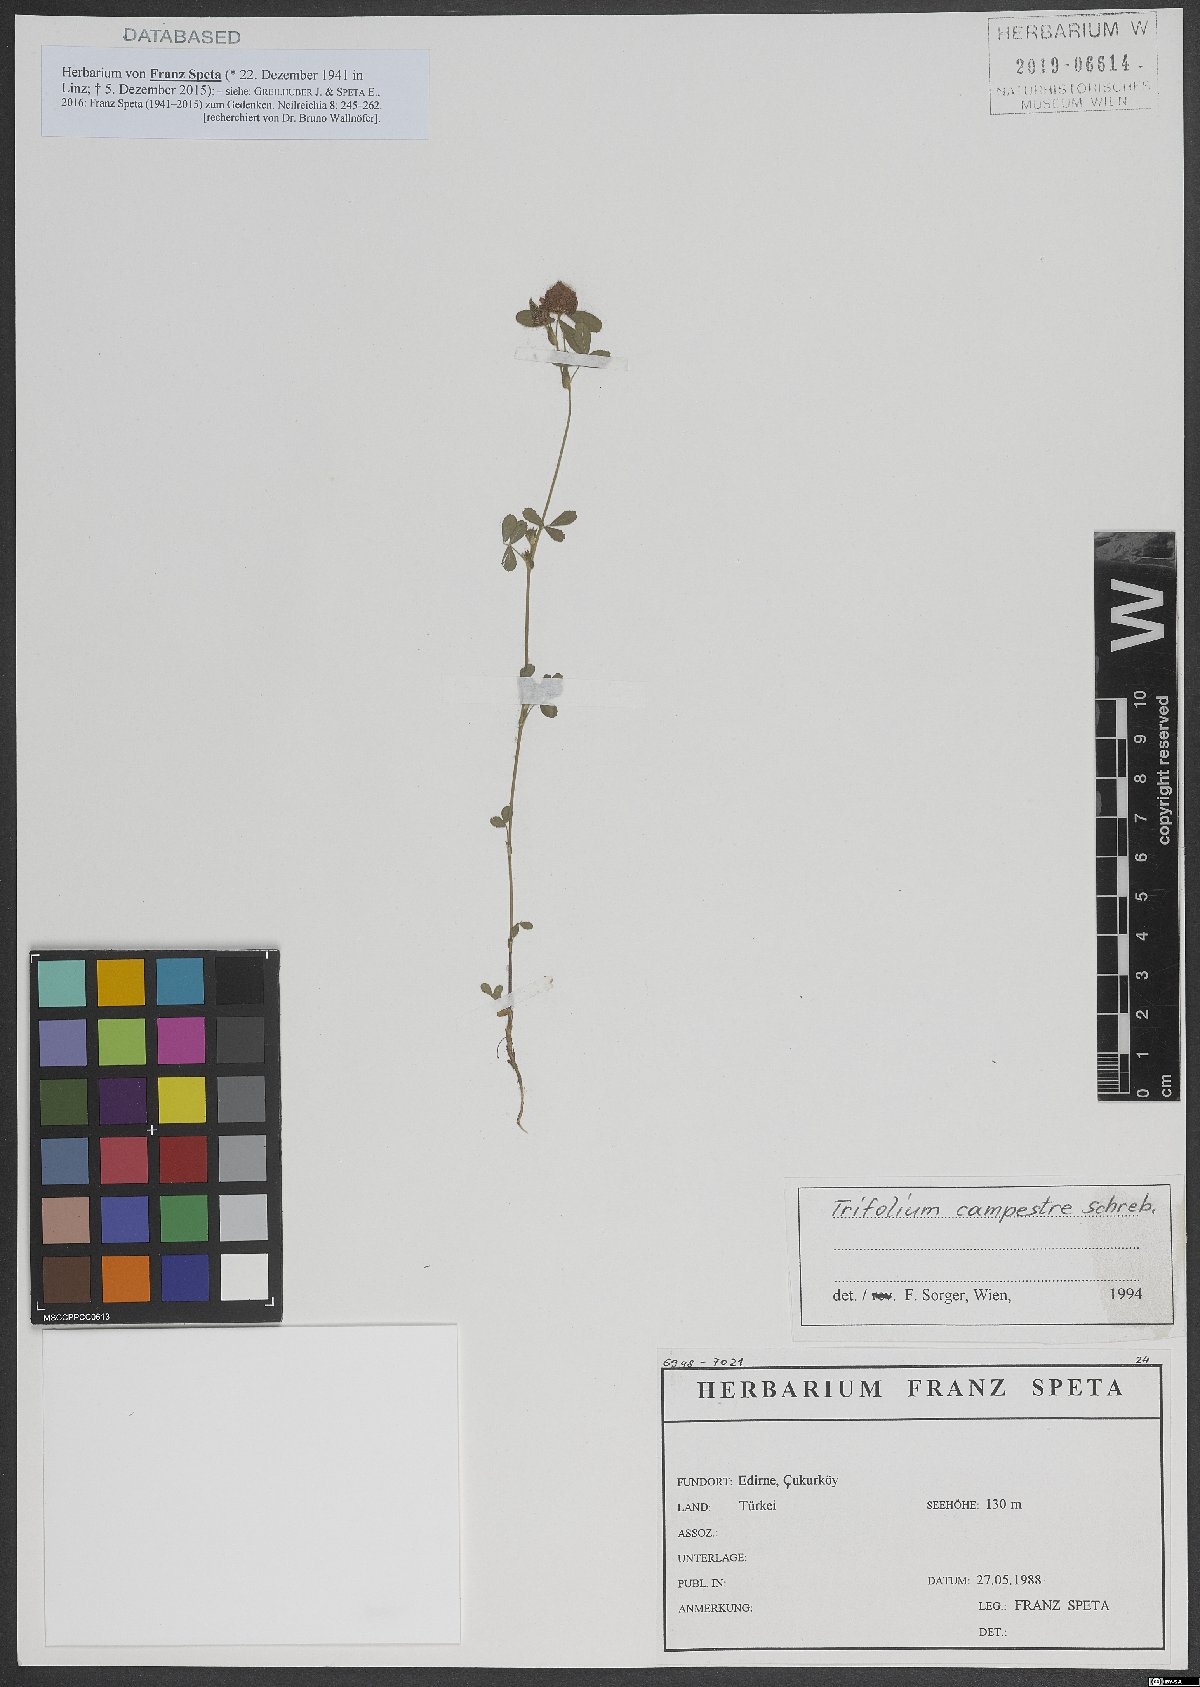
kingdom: Plantae
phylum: Tracheophyta
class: Magnoliopsida
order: Fabales
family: Fabaceae
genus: Trifolium
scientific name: Trifolium campestre
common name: Field clover
